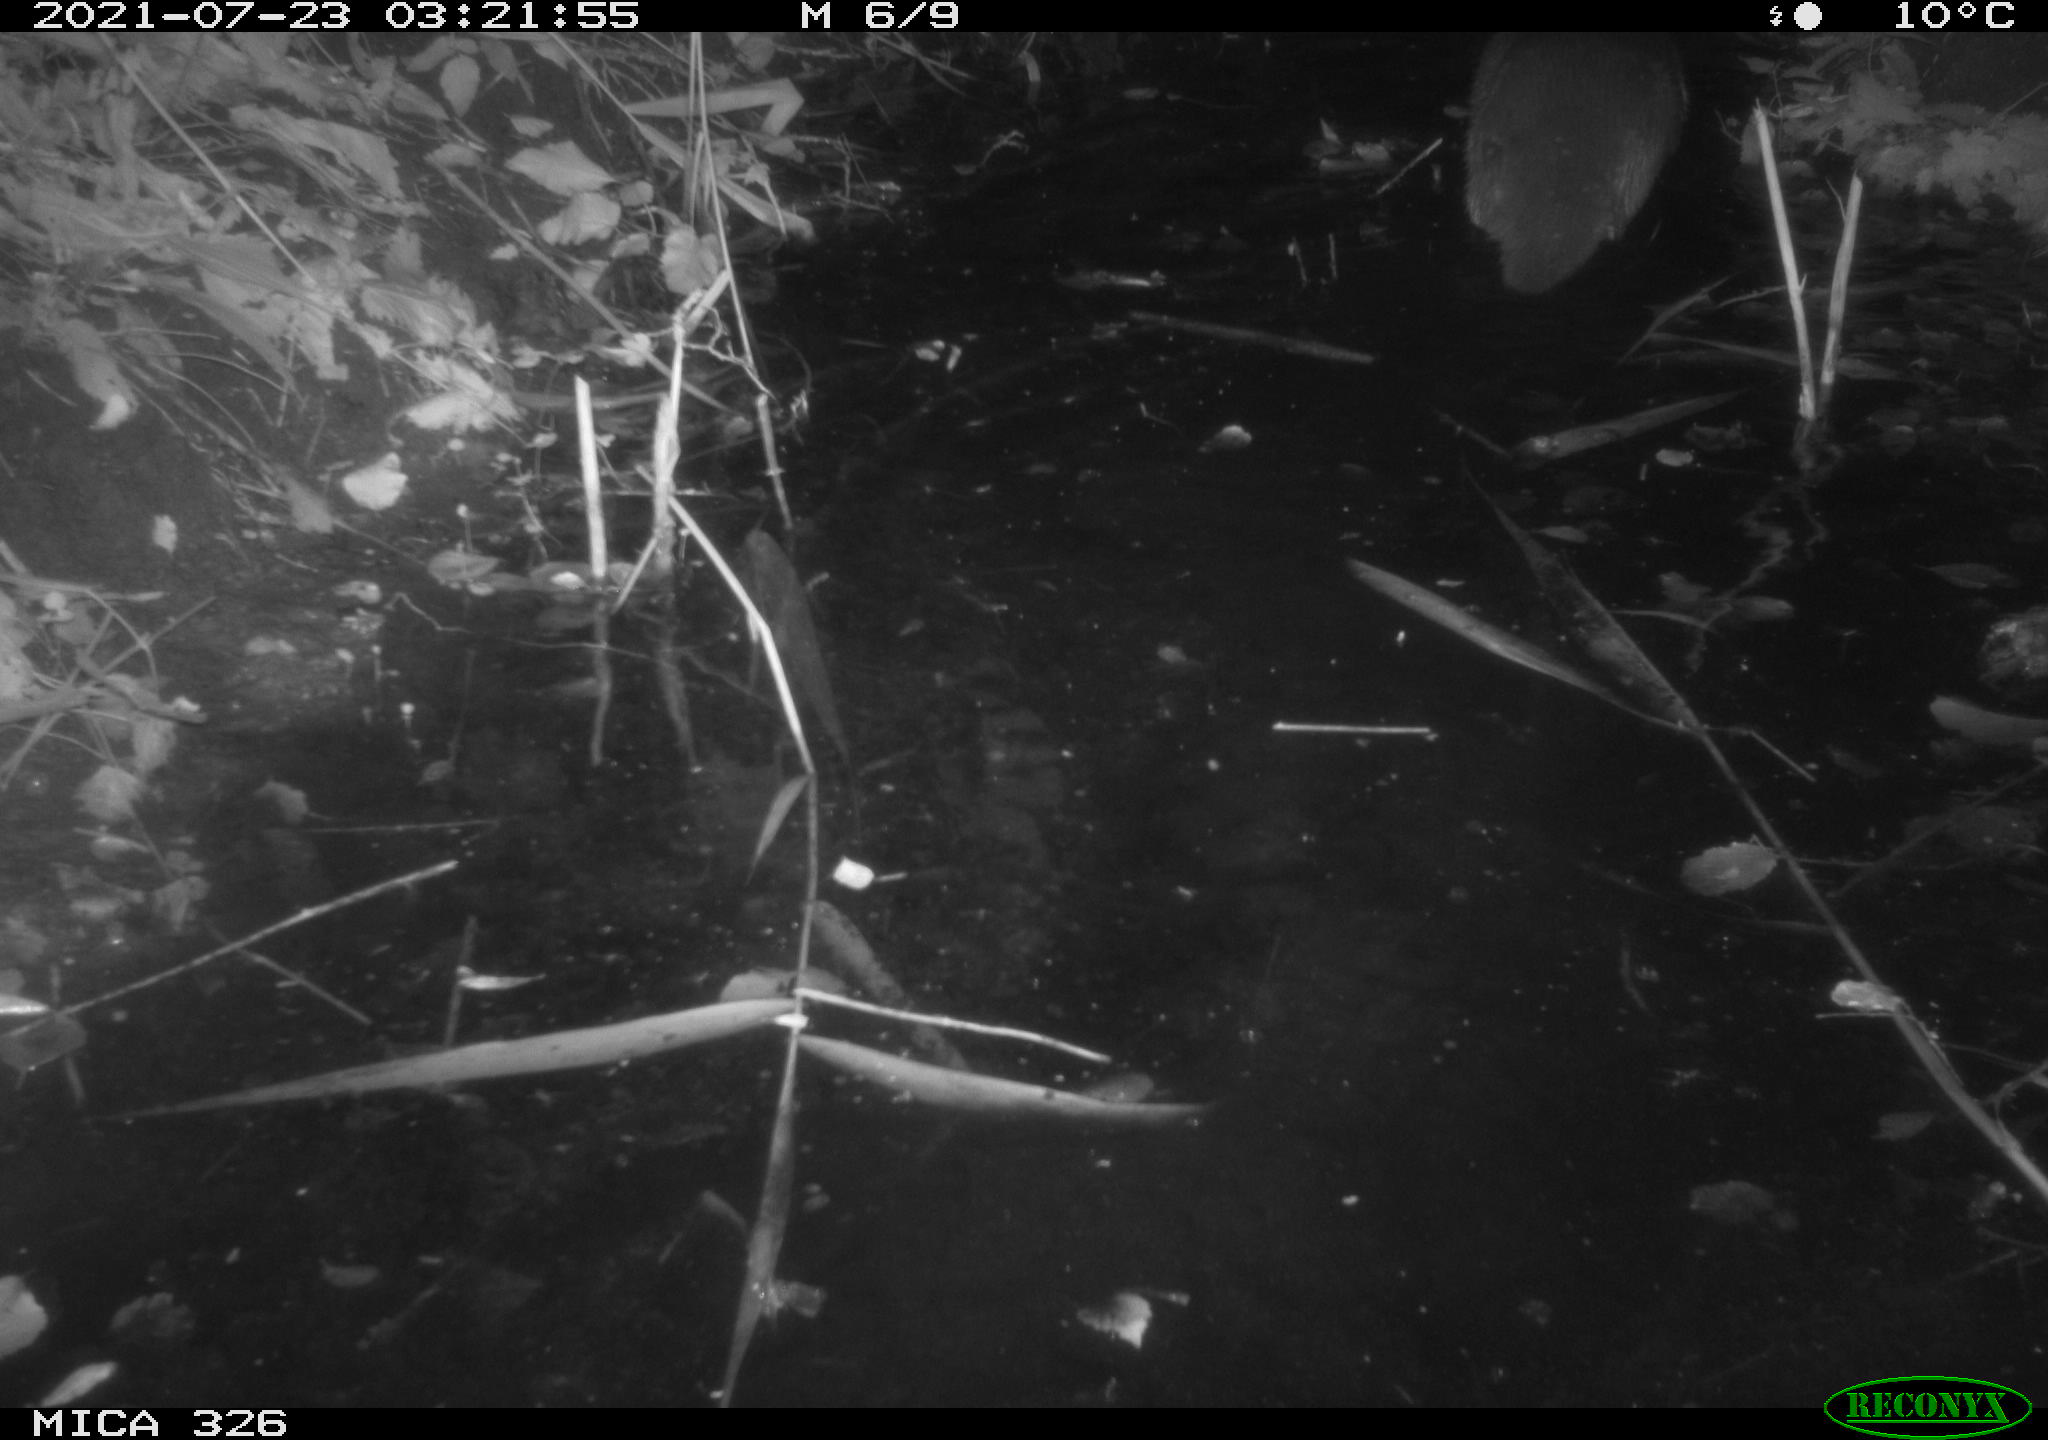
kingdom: Animalia
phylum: Chordata
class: Mammalia
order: Carnivora
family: Mustelidae
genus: Lutra
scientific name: Lutra lutra
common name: European otter
